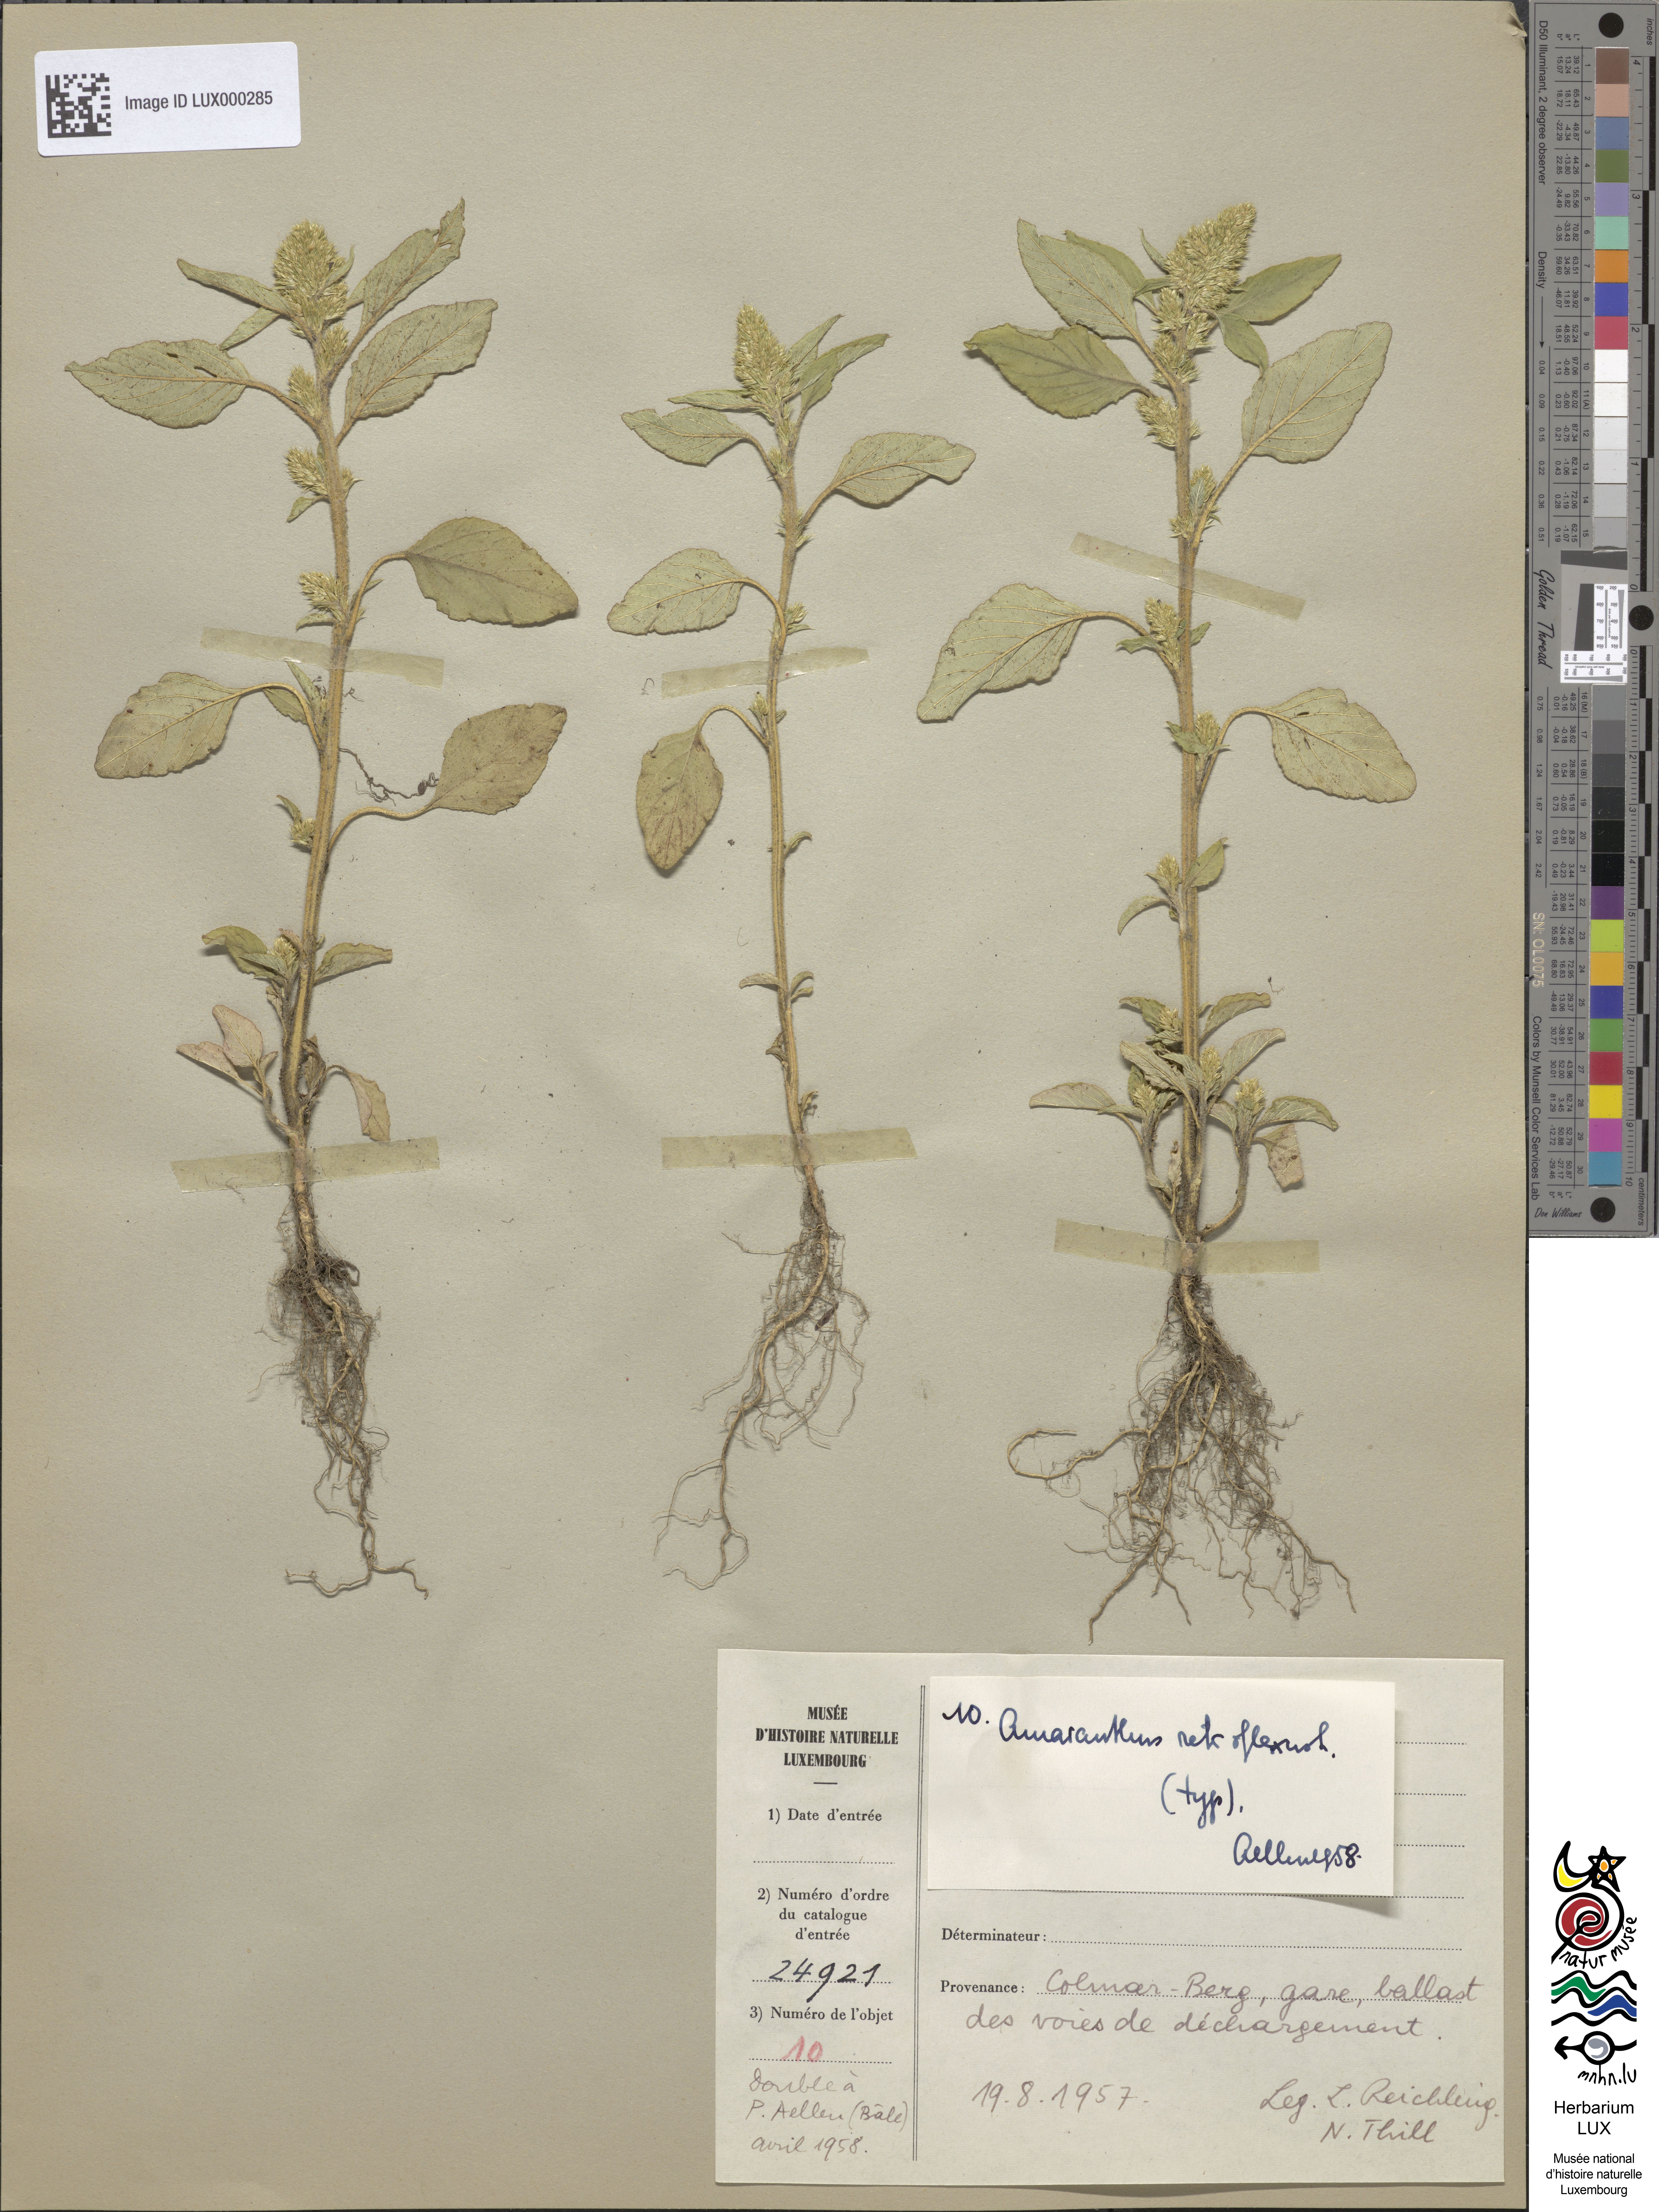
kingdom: Plantae
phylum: Tracheophyta
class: Magnoliopsida
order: Caryophyllales
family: Amaranthaceae
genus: Amaranthus
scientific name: Amaranthus retroflexus
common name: Redroot amaranth
